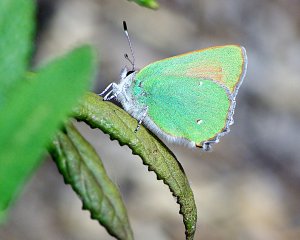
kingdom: Animalia
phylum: Arthropoda
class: Insecta
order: Lepidoptera
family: Lycaenidae
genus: Callophrys
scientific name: Callophrys dumetorum
